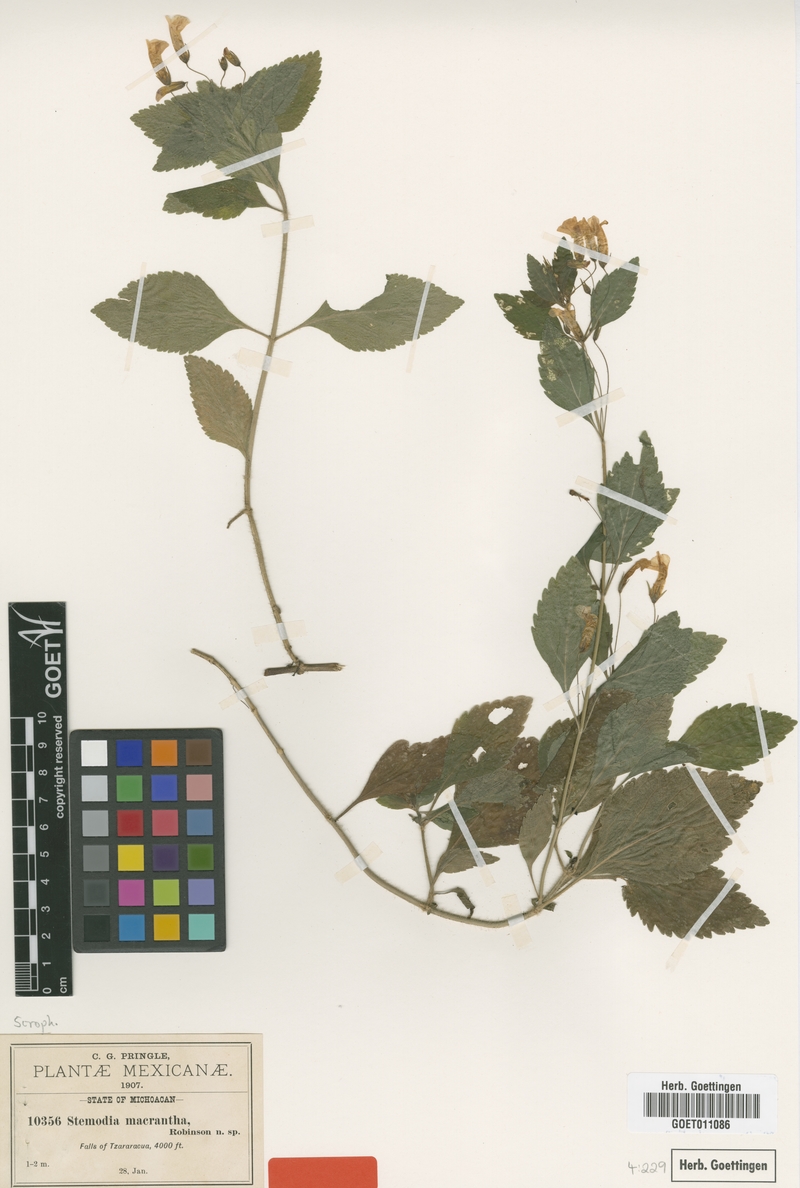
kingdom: Plantae
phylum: Tracheophyta
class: Magnoliopsida
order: Lamiales
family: Plantaginaceae
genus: Stemodia
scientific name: Stemodia macrantha
